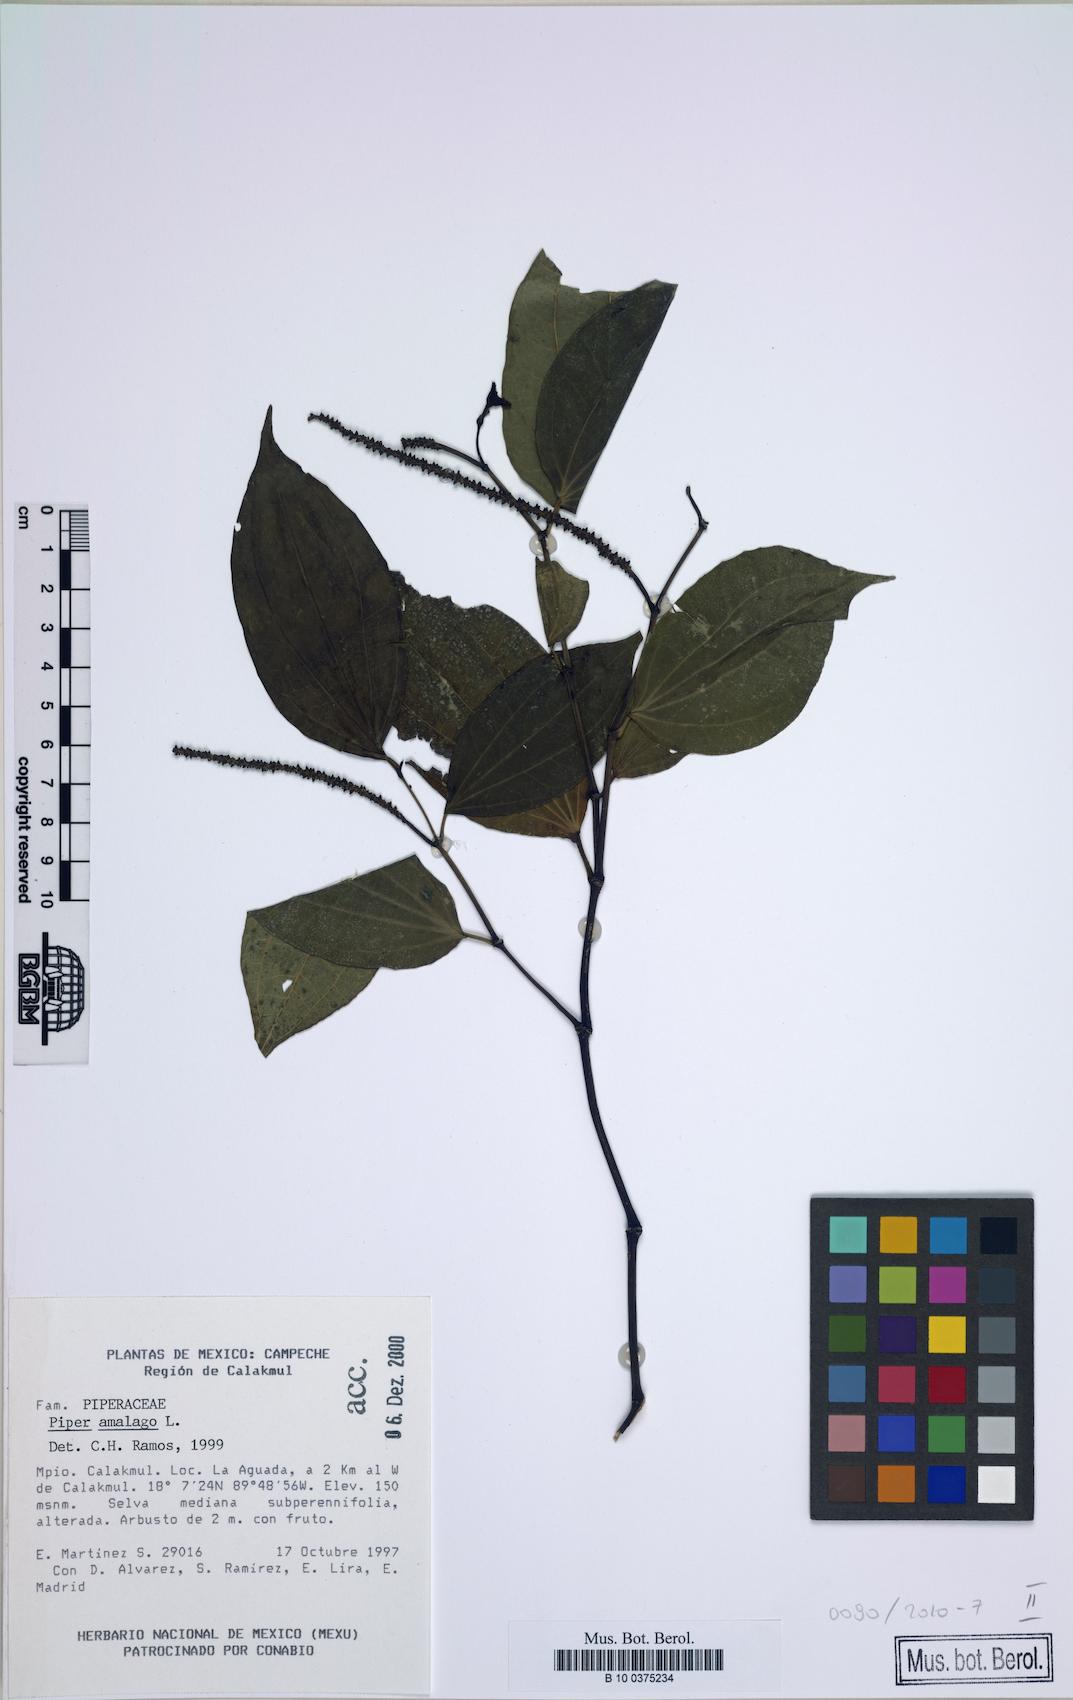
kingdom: Plantae
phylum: Tracheophyta
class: Magnoliopsida
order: Piperales
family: Piperaceae
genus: Piper
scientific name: Piper amalago
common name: Pepper-elder
